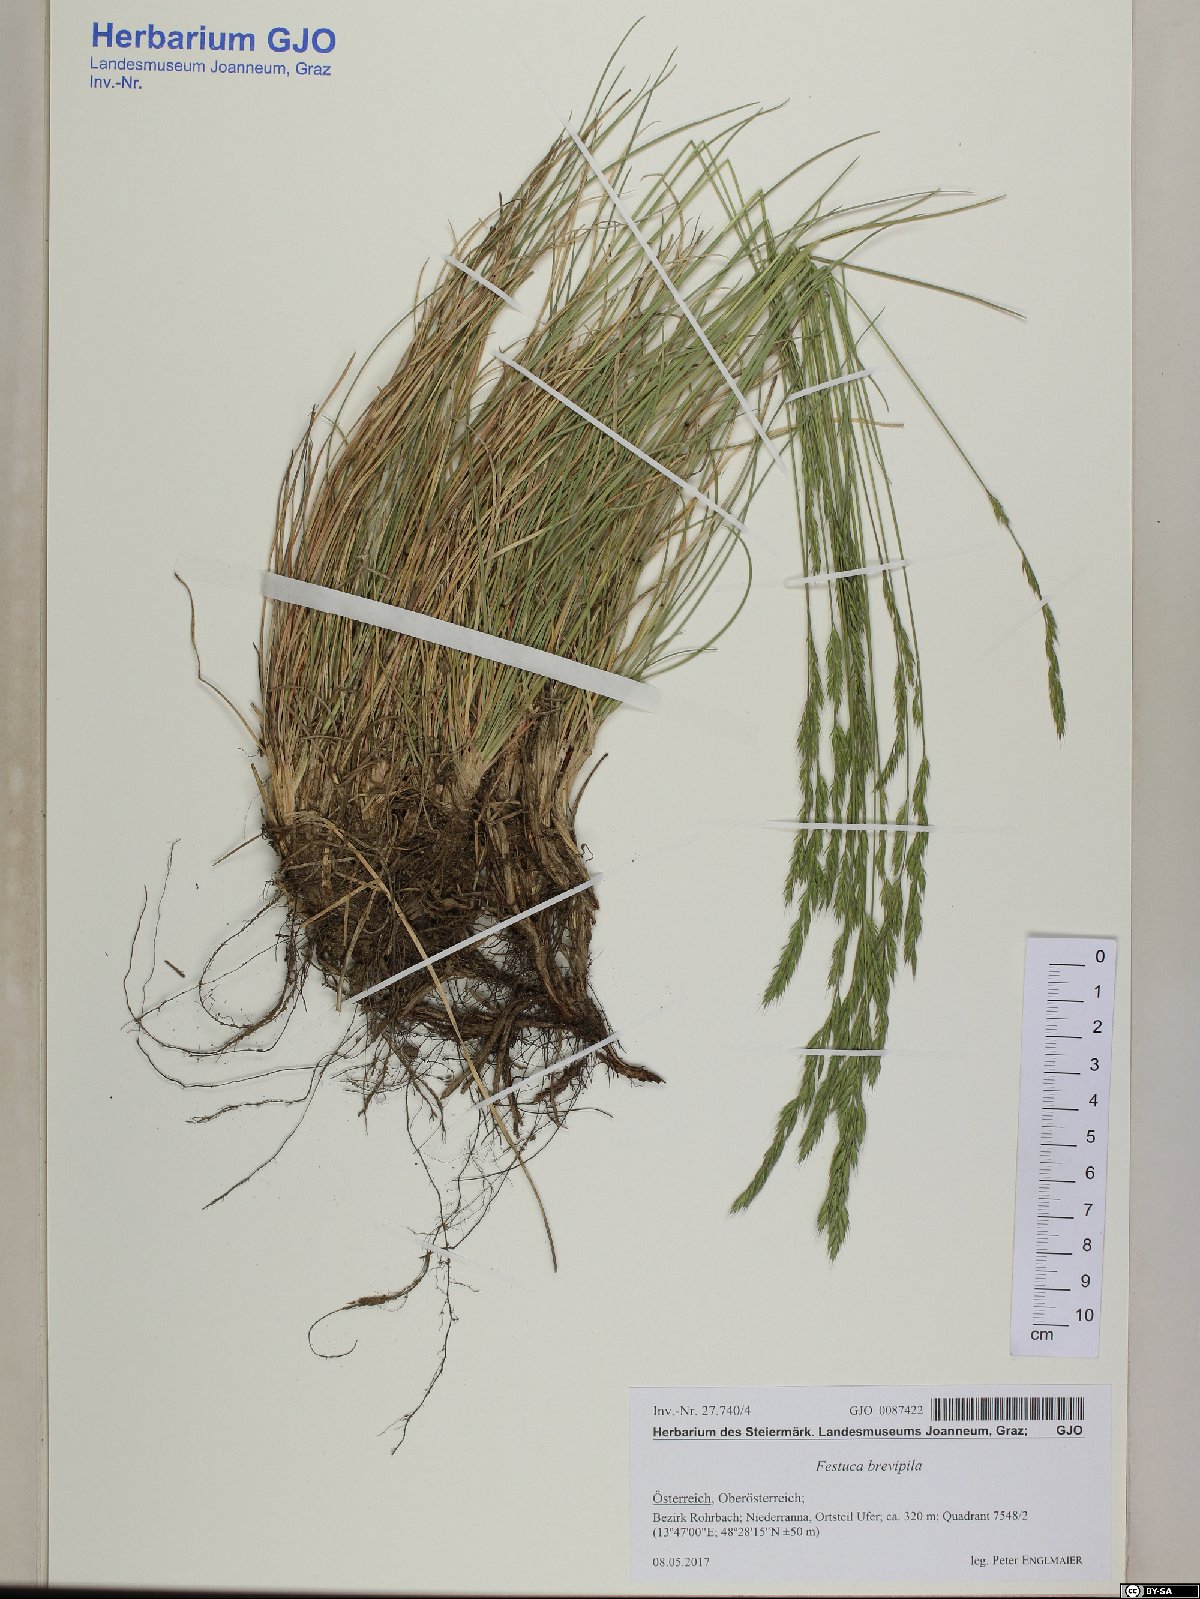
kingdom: Plantae
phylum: Tracheophyta
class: Liliopsida
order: Poales
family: Poaceae
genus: Festuca
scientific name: Festuca trachyphylla
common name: Hard fescue
